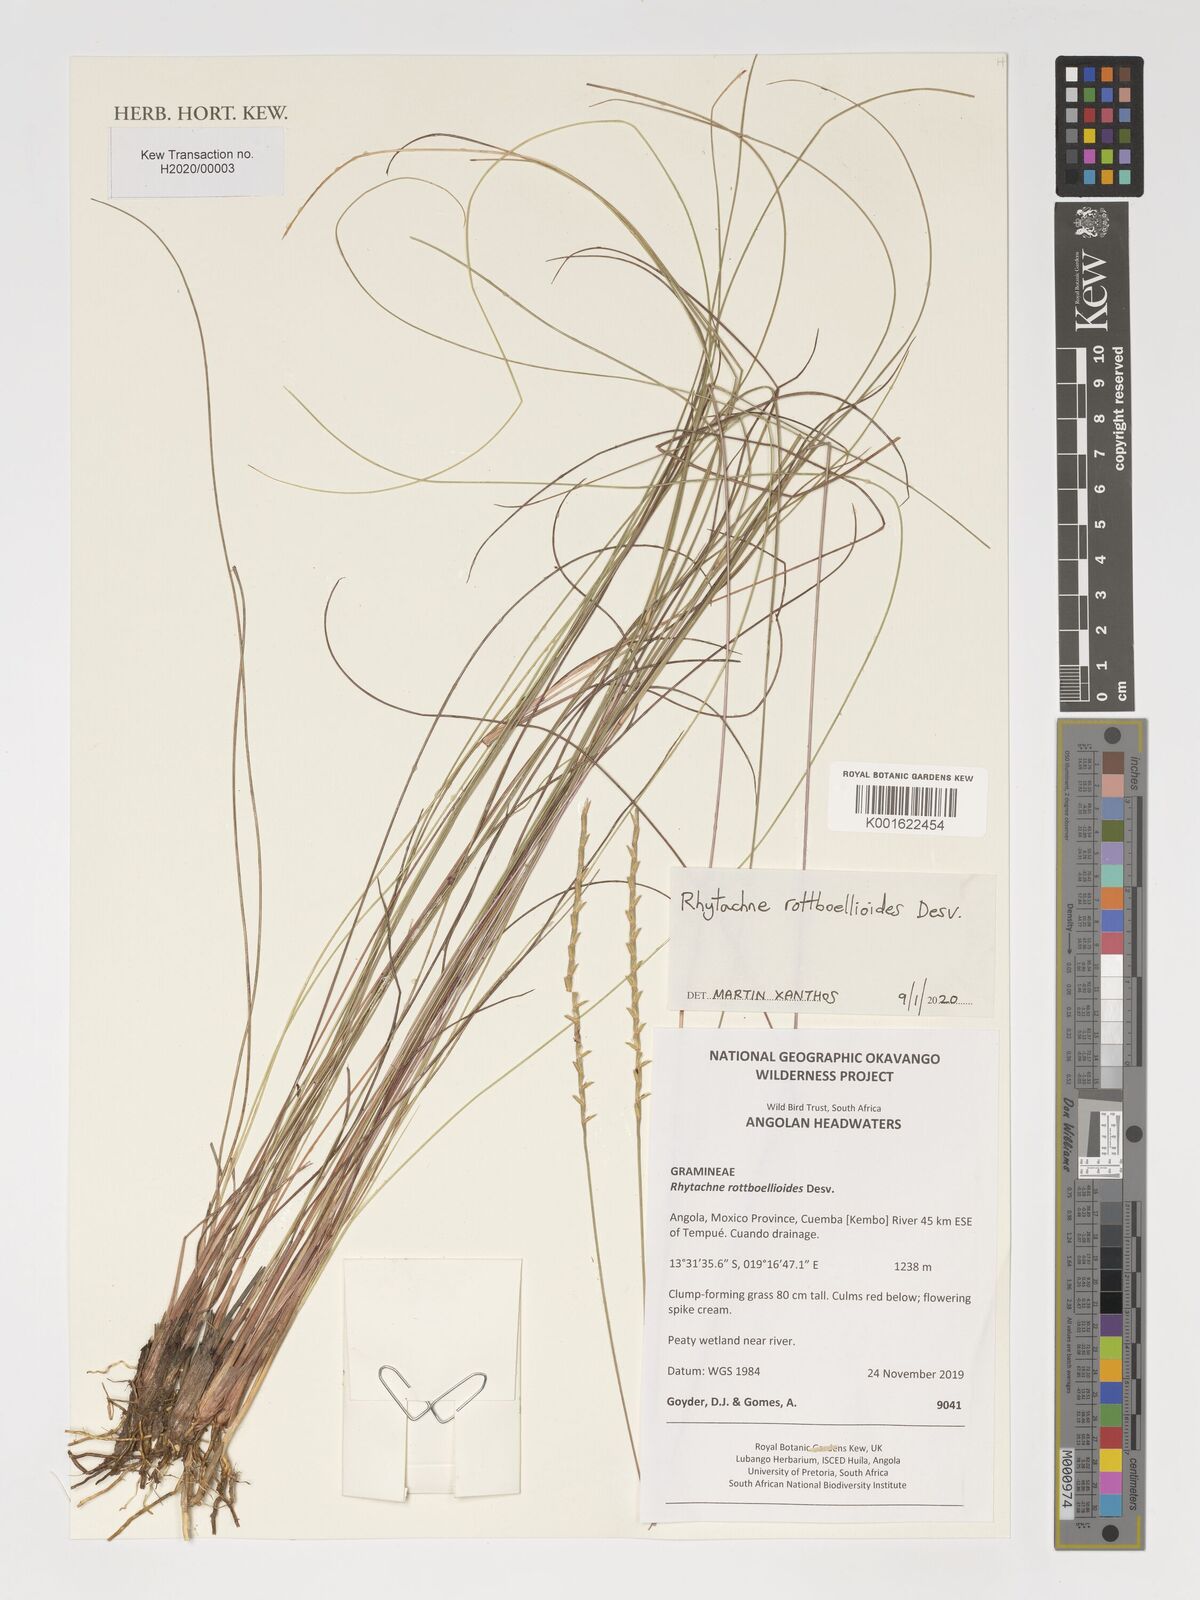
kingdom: Plantae
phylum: Tracheophyta
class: Liliopsida
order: Poales
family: Poaceae
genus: Rhytachne
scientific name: Rhytachne rottboellioides
